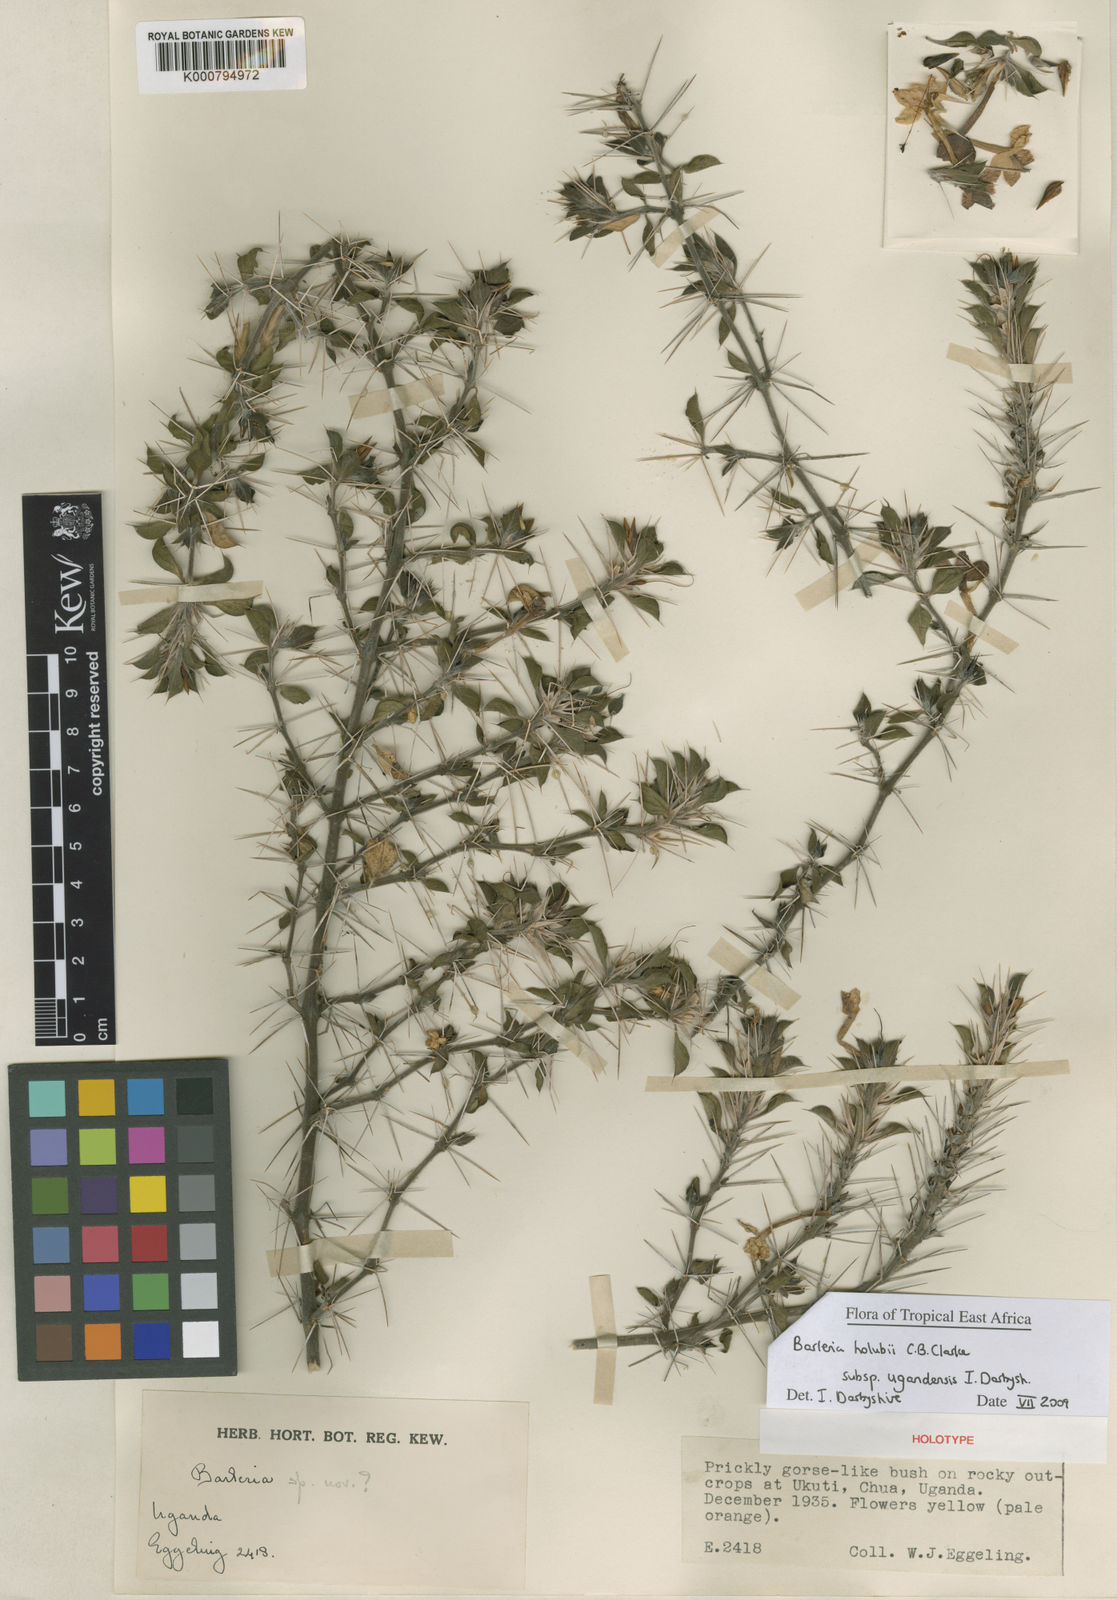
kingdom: Plantae
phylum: Tracheophyta
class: Magnoliopsida
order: Lamiales
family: Acanthaceae
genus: Barleria
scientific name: Barleria holubii
